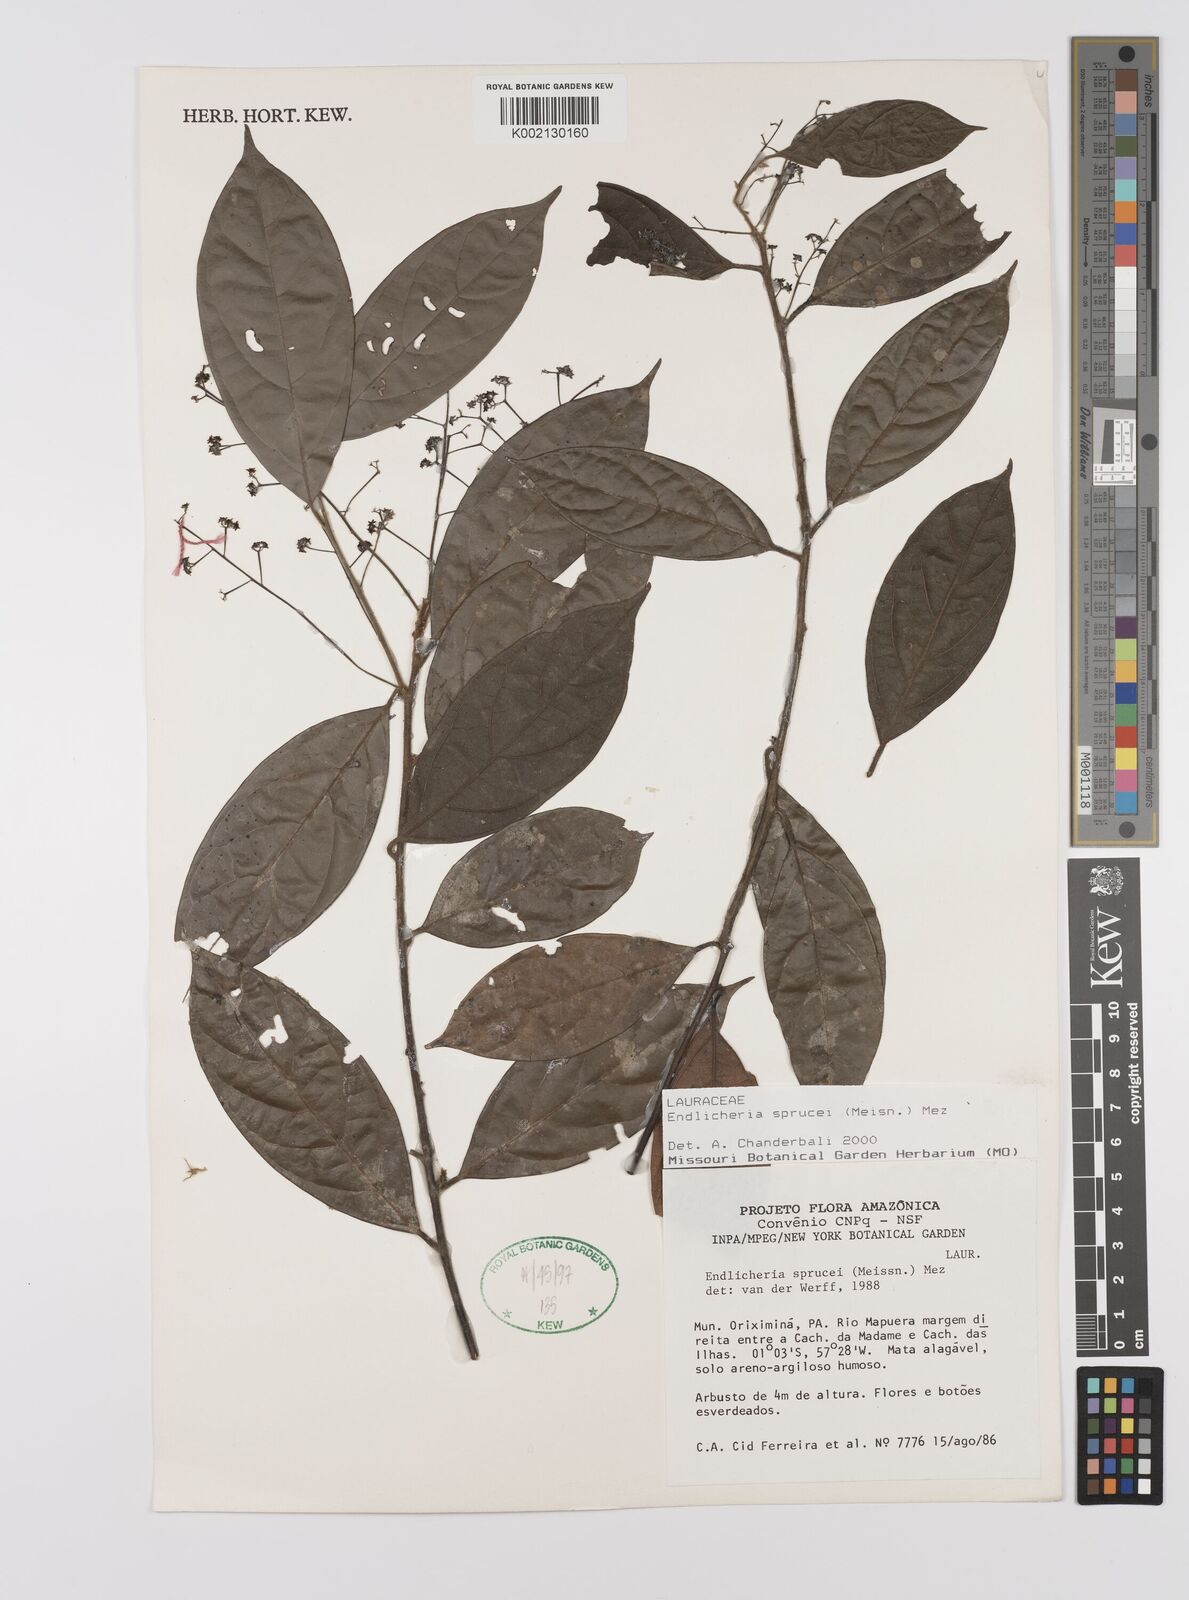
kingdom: Plantae
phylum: Tracheophyta
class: Magnoliopsida
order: Laurales
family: Lauraceae
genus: Endlicheria
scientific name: Endlicheria sprucei
